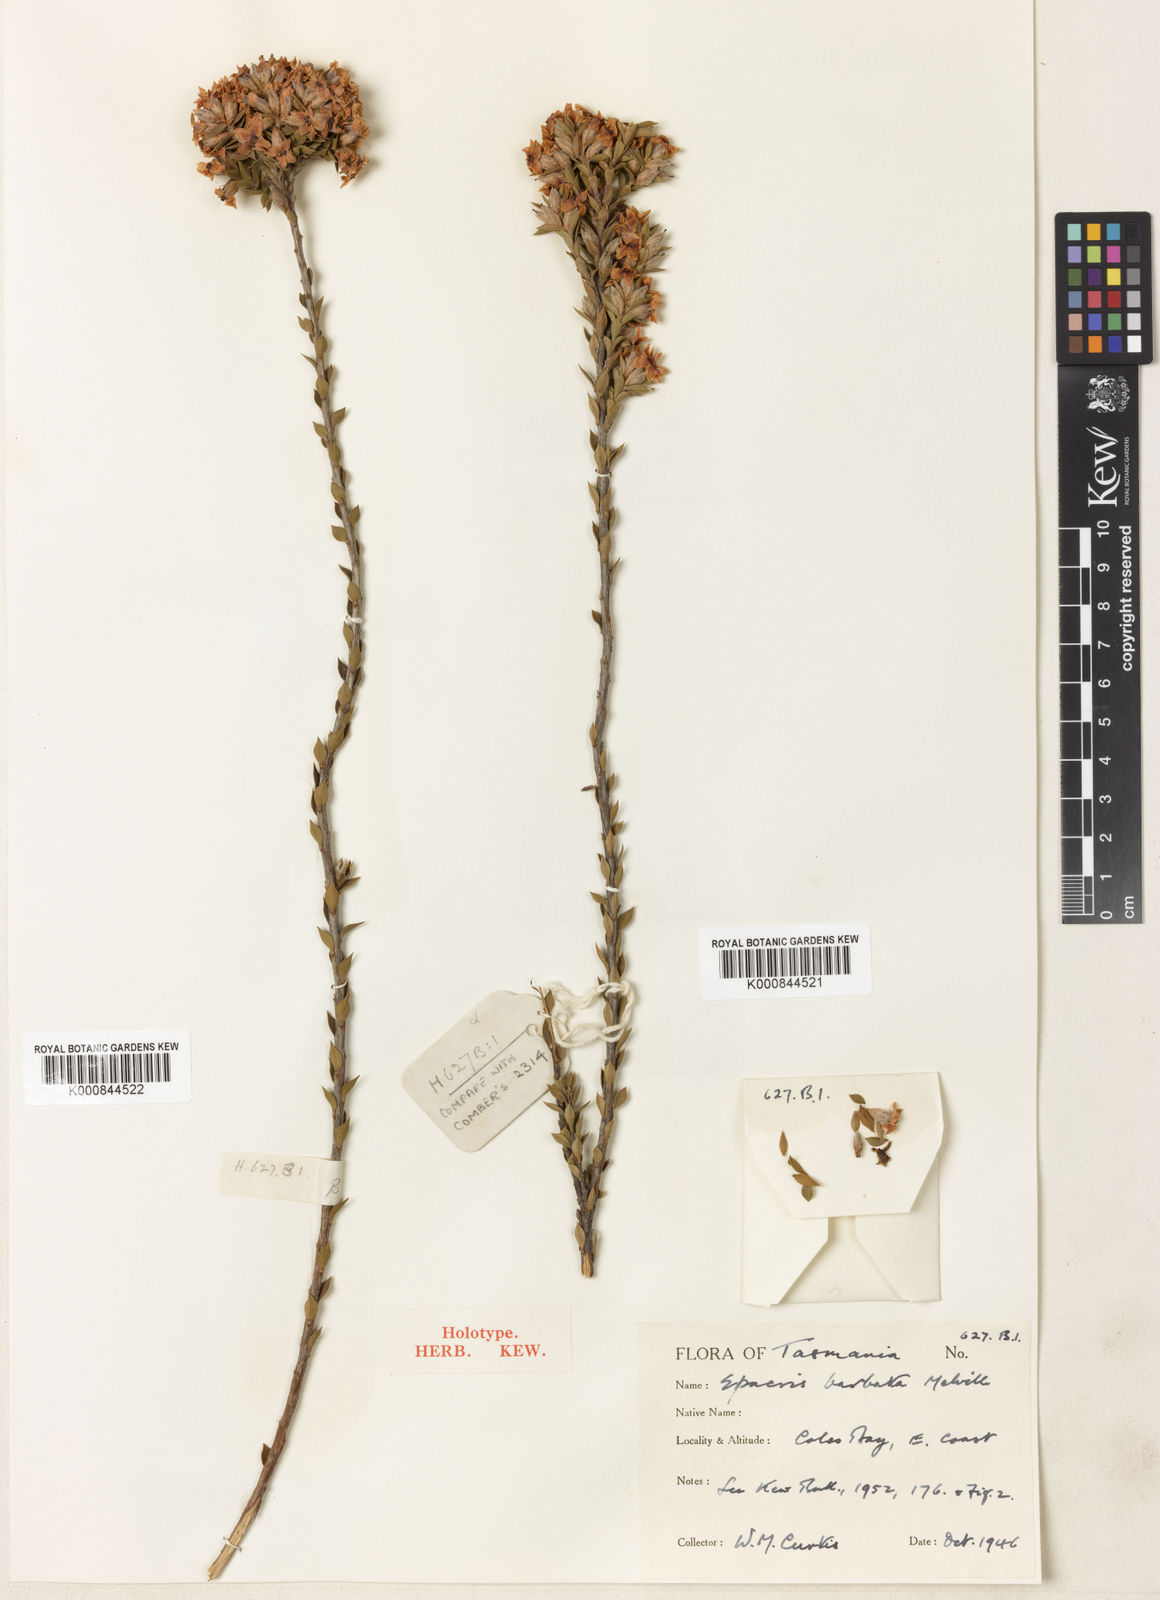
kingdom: Plantae
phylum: Tracheophyta
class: Magnoliopsida
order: Ericales
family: Ericaceae
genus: Epacris
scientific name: Epacris barbata
